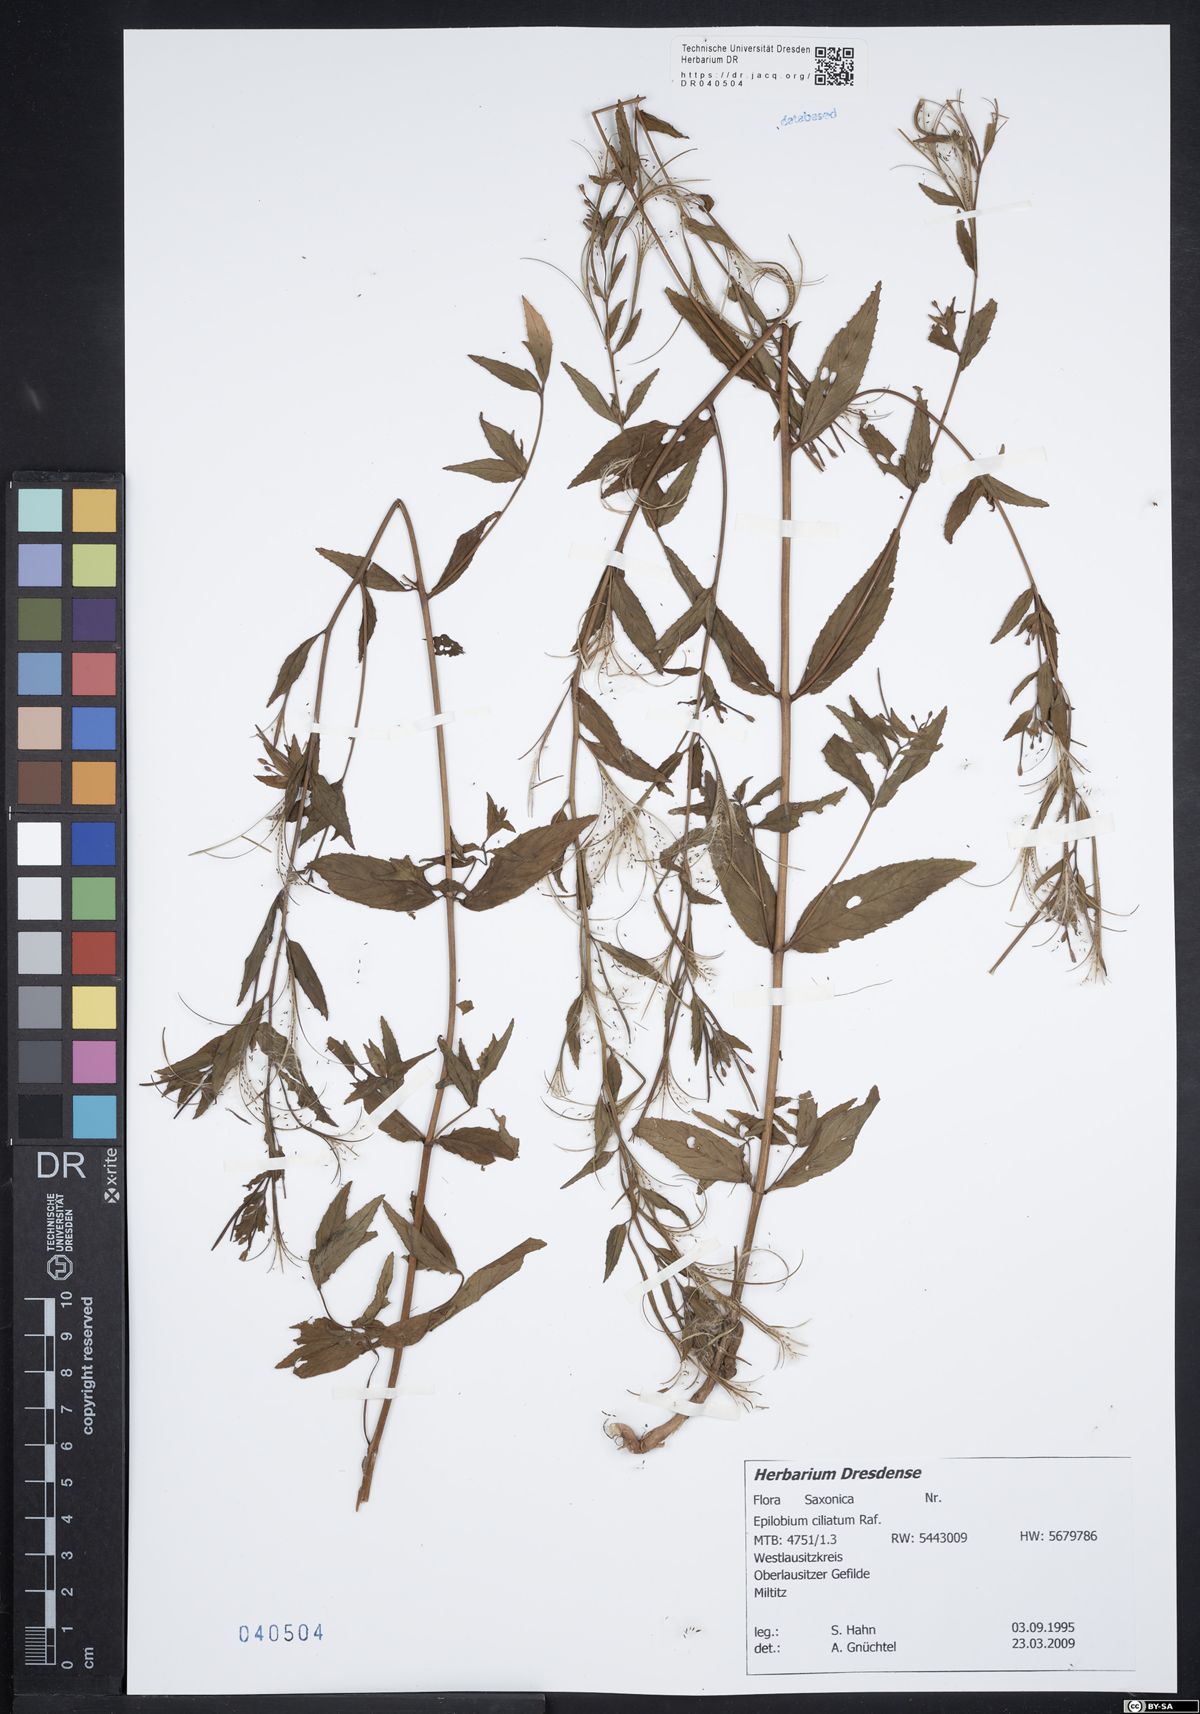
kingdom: Plantae
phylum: Tracheophyta
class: Magnoliopsida
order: Myrtales
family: Onagraceae
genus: Epilobium
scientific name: Epilobium ciliatum
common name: American willowherb
